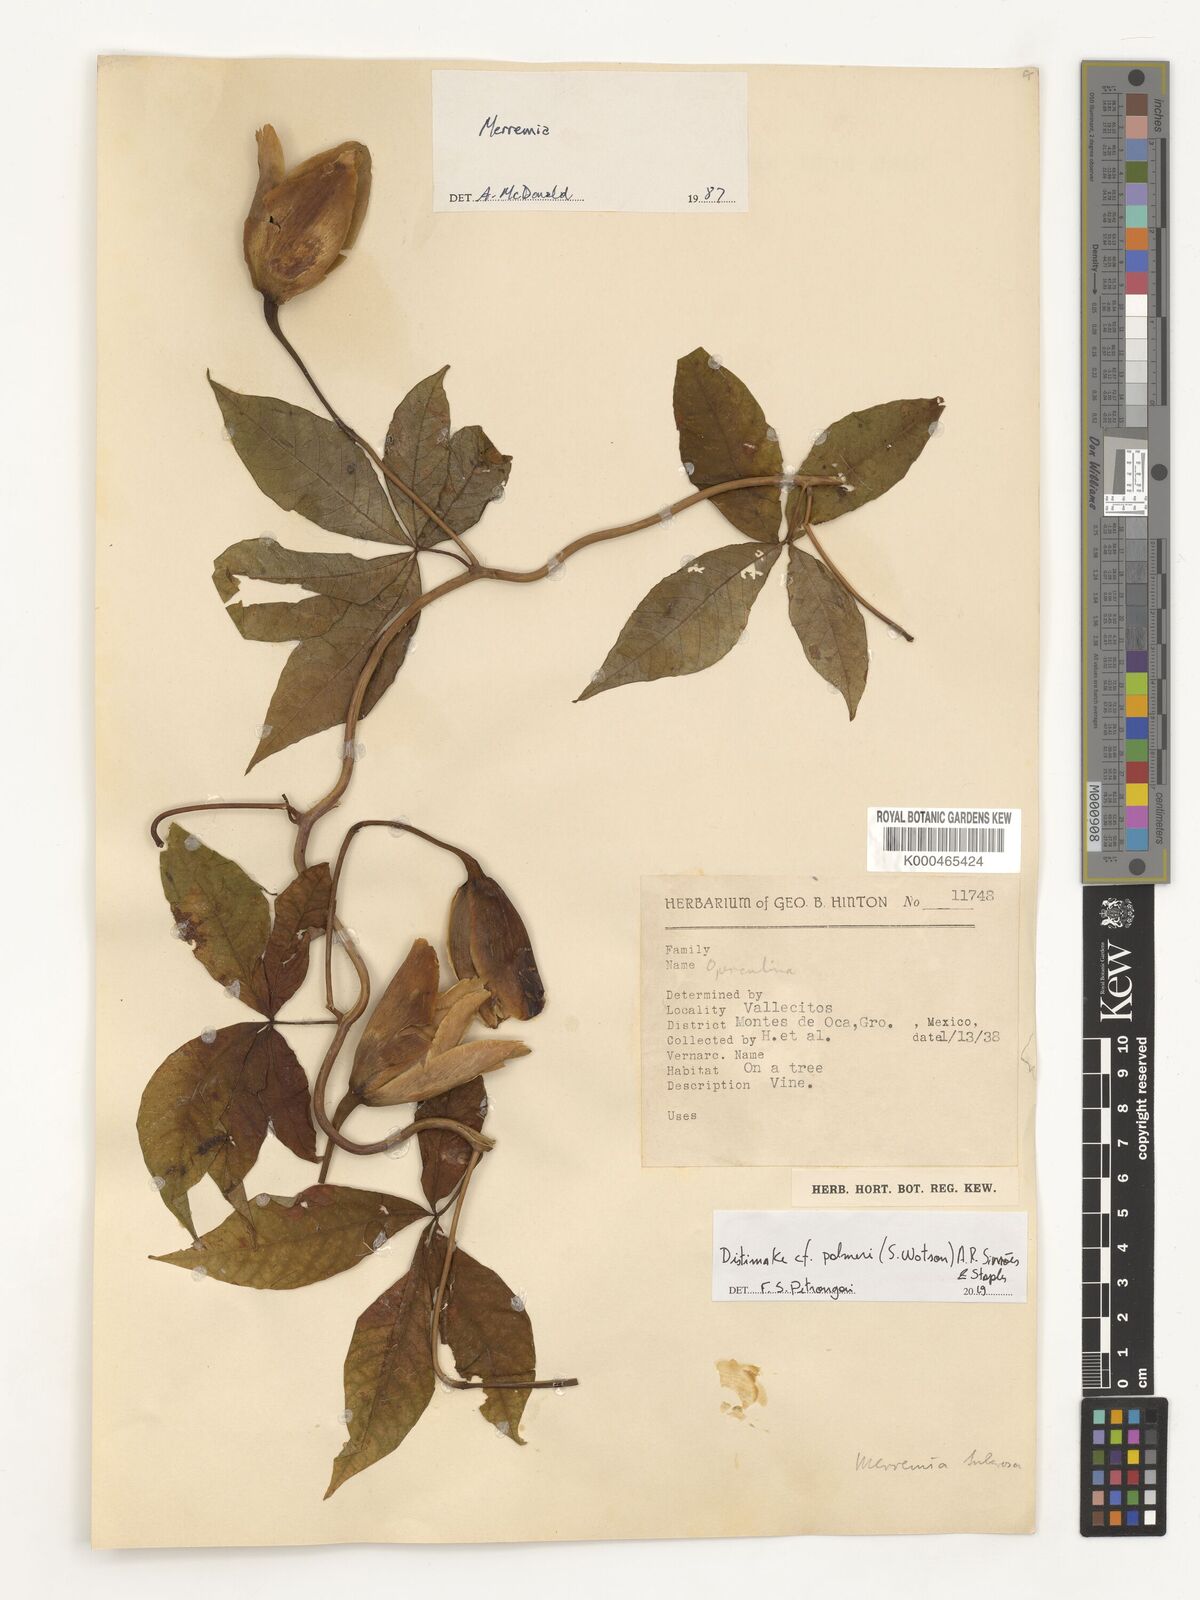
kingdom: Plantae
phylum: Tracheophyta
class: Magnoliopsida
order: Solanales
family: Convolvulaceae
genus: Distimake
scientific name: Distimake palmeri
